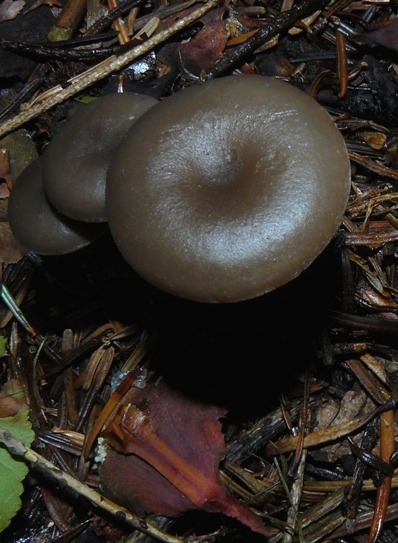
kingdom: Fungi
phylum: Basidiomycota
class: Agaricomycetes
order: Agaricales
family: Tricholomataceae
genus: Lepista
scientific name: Lepista metachroides
